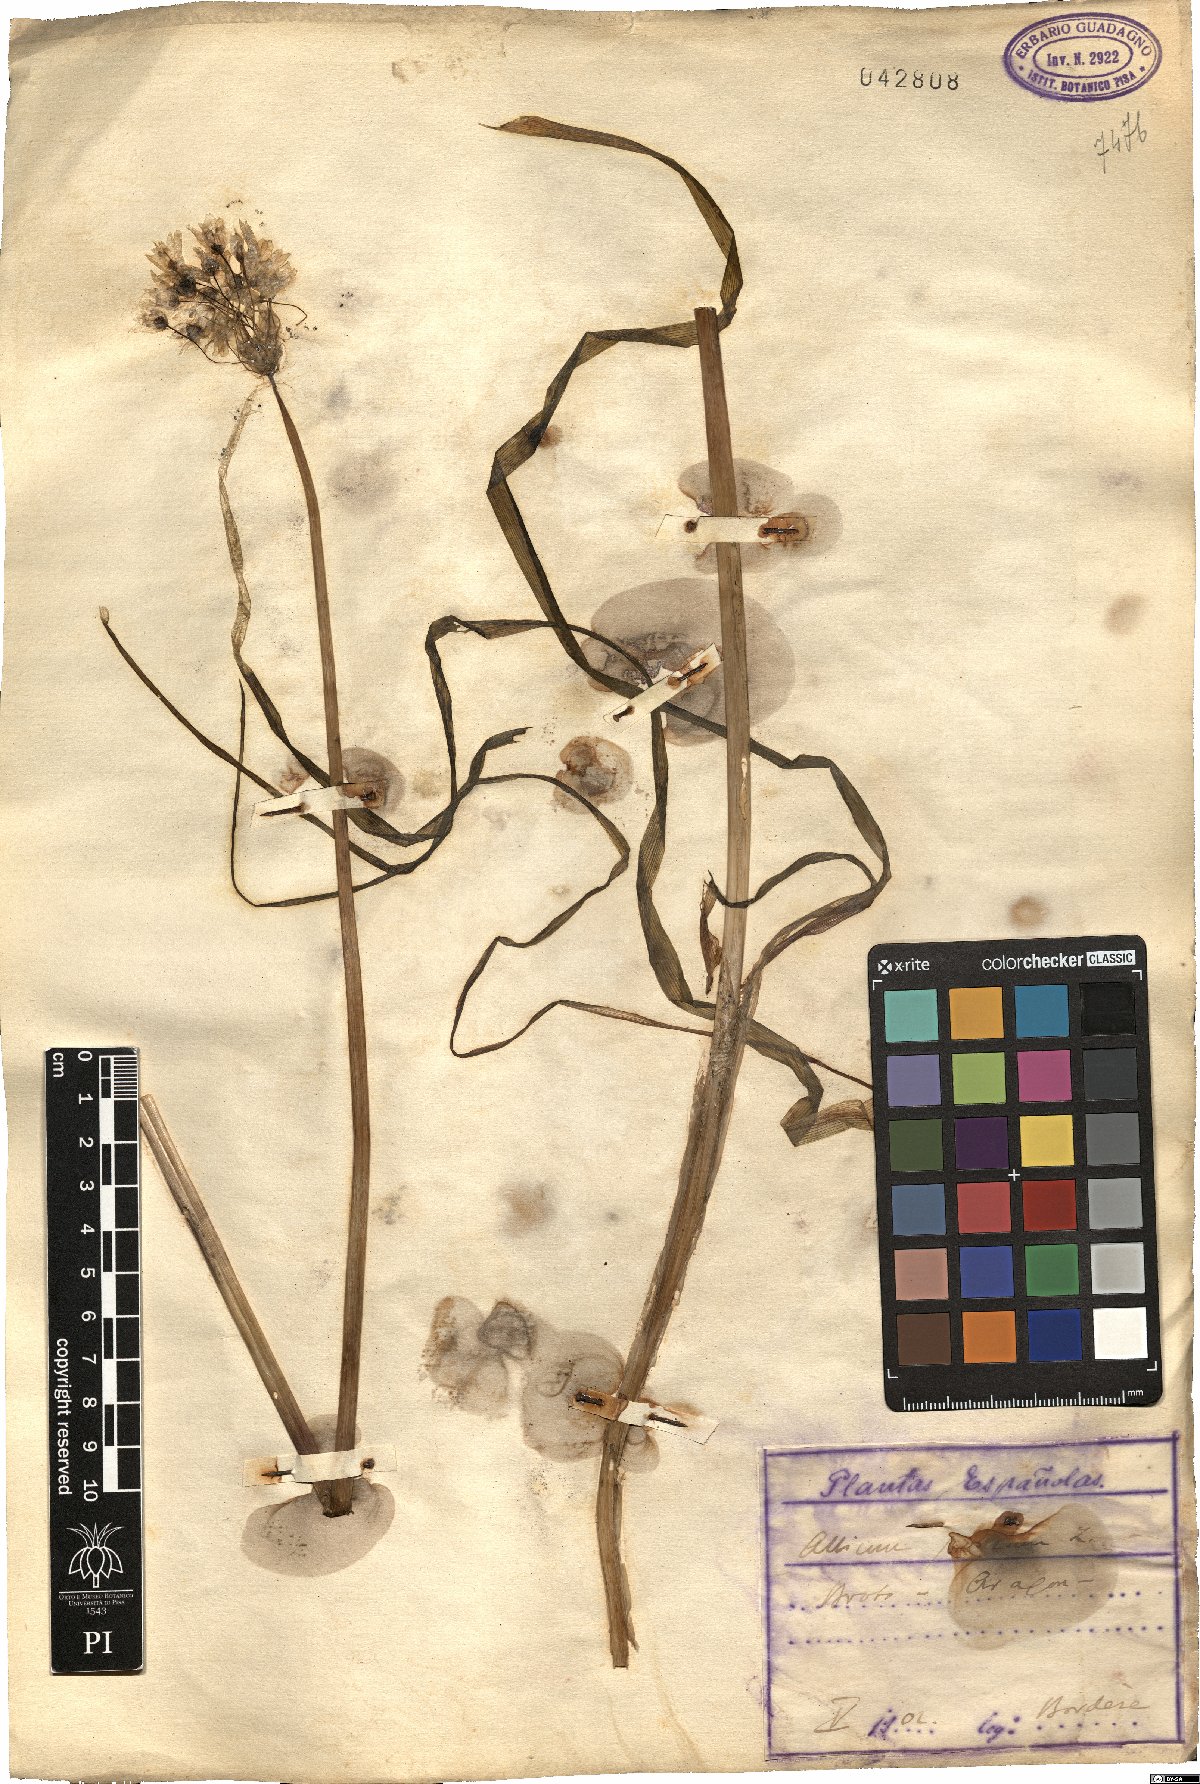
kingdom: Plantae
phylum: Tracheophyta
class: Liliopsida
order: Asparagales
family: Amaryllidaceae
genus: Allium
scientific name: Allium
